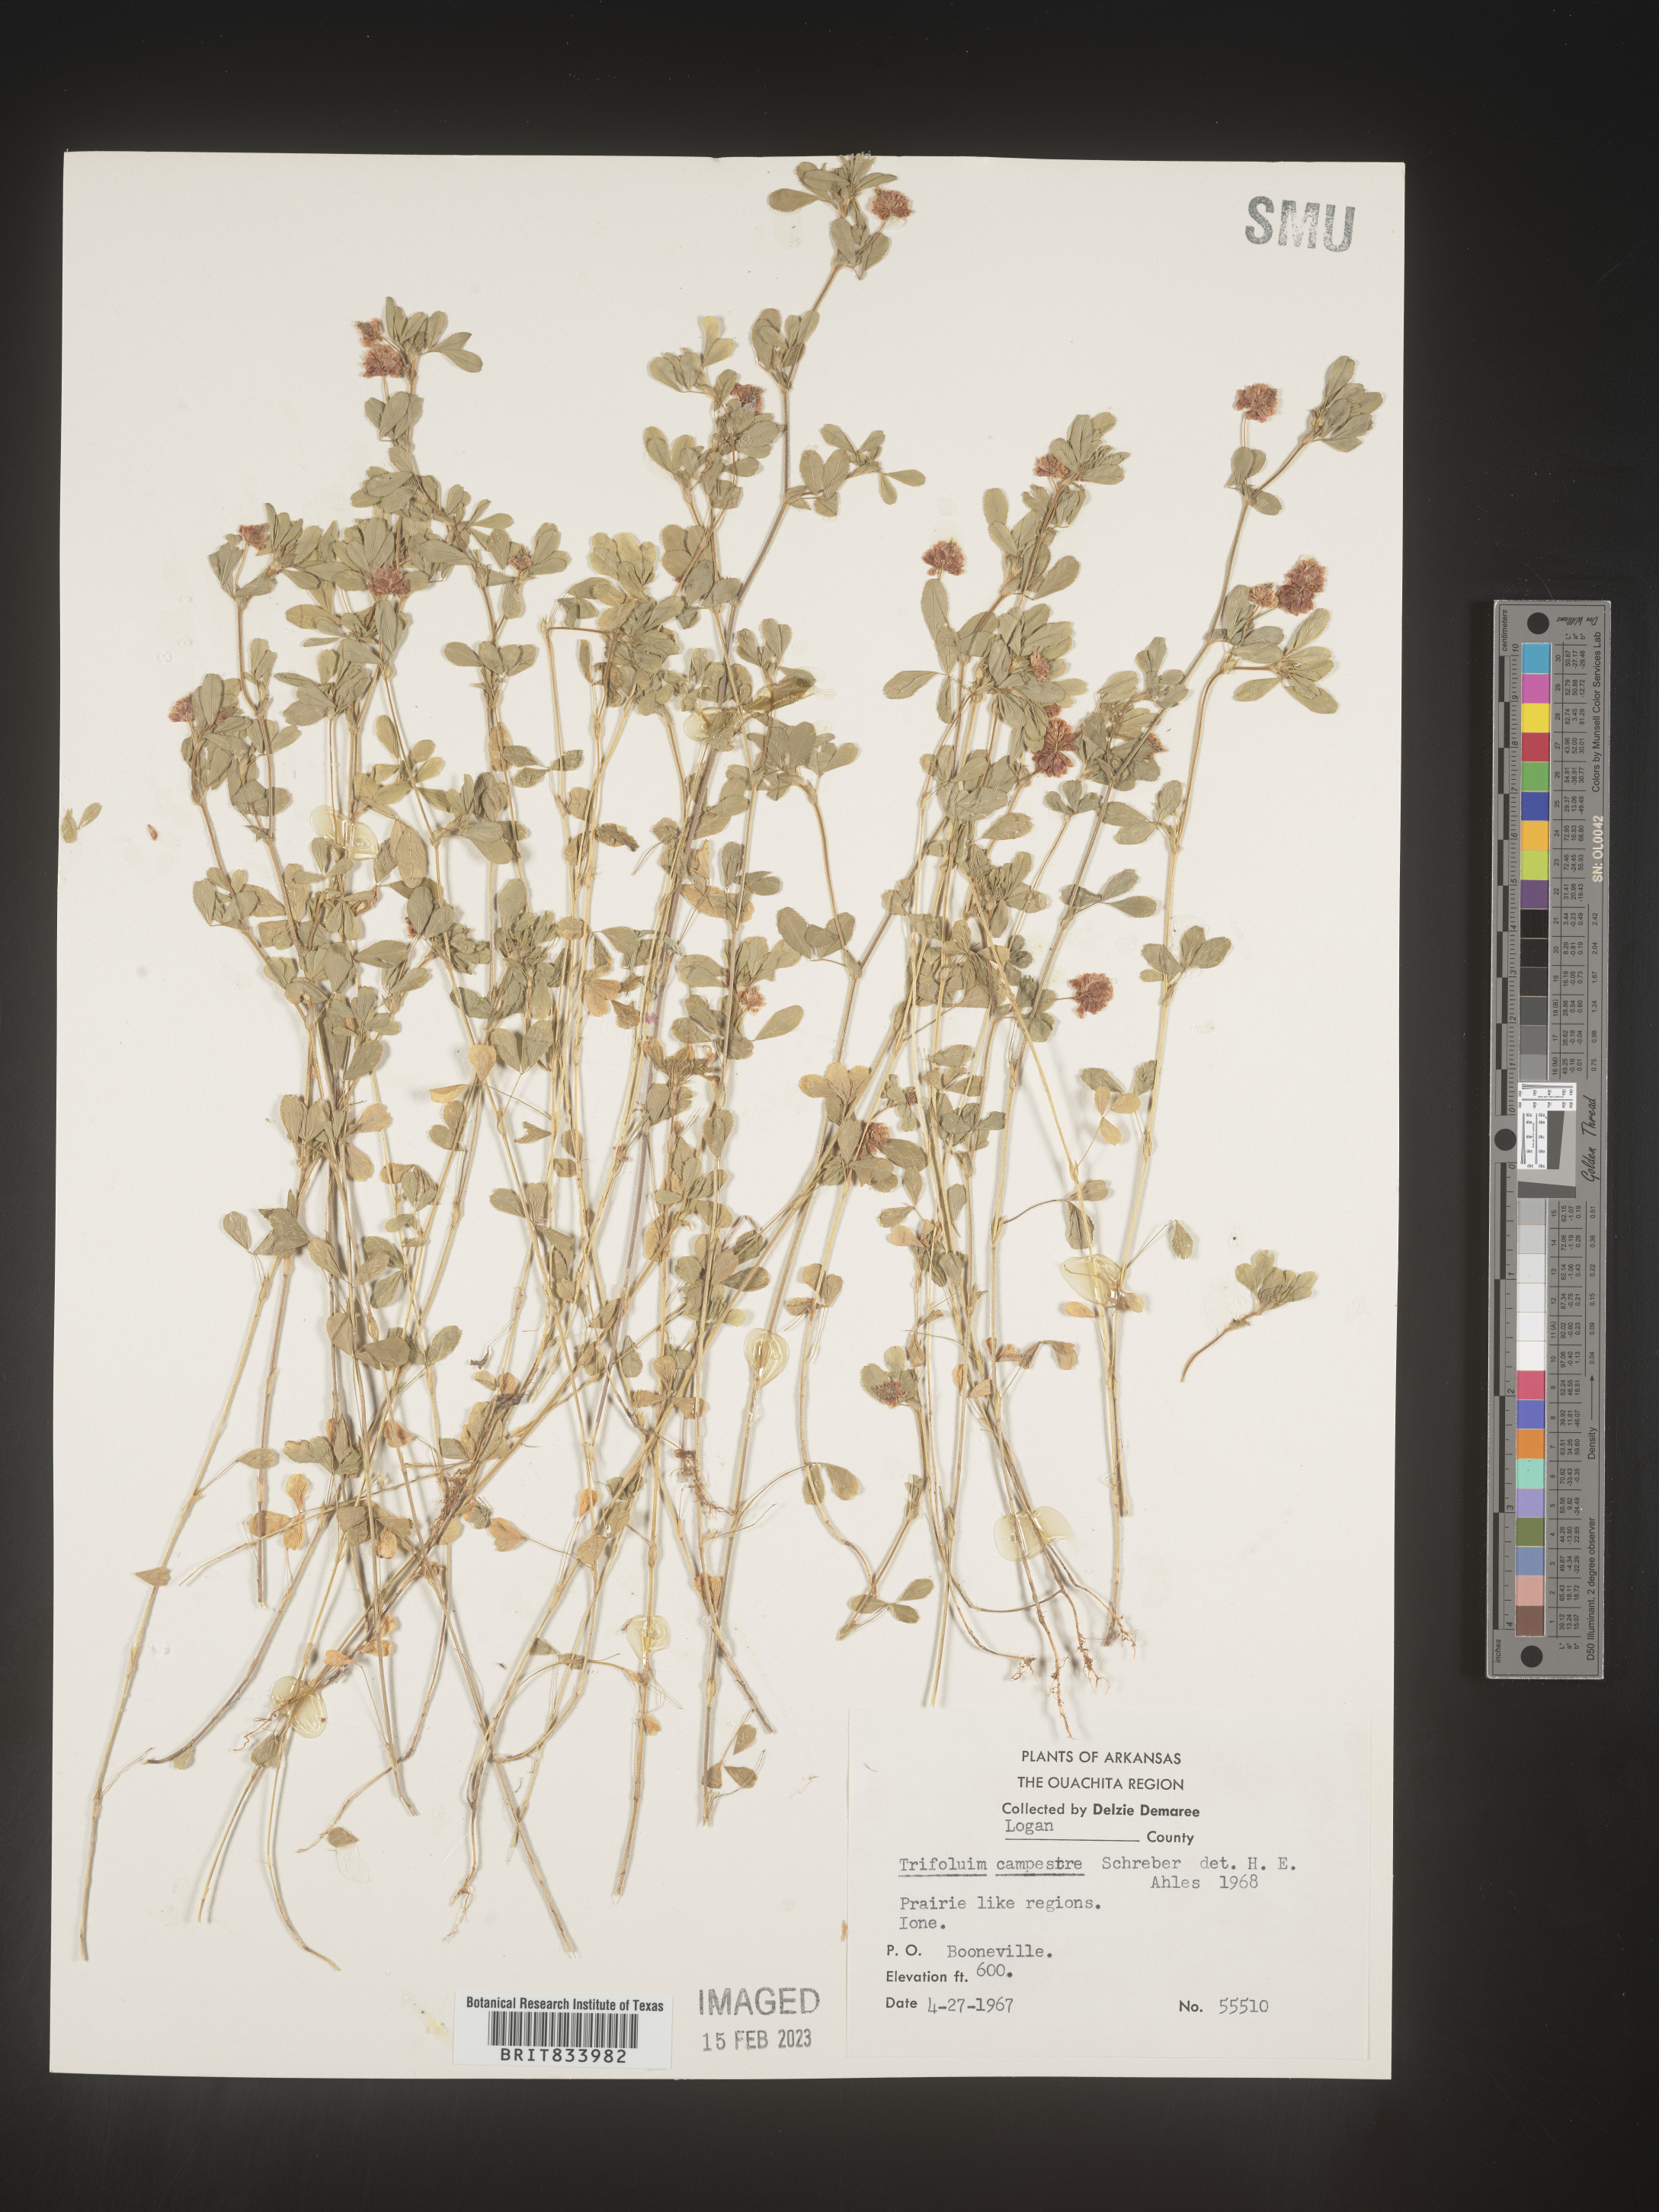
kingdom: Plantae
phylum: Tracheophyta
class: Magnoliopsida
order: Fabales
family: Fabaceae
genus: Trifolium
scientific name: Trifolium campestre
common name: Field clover
